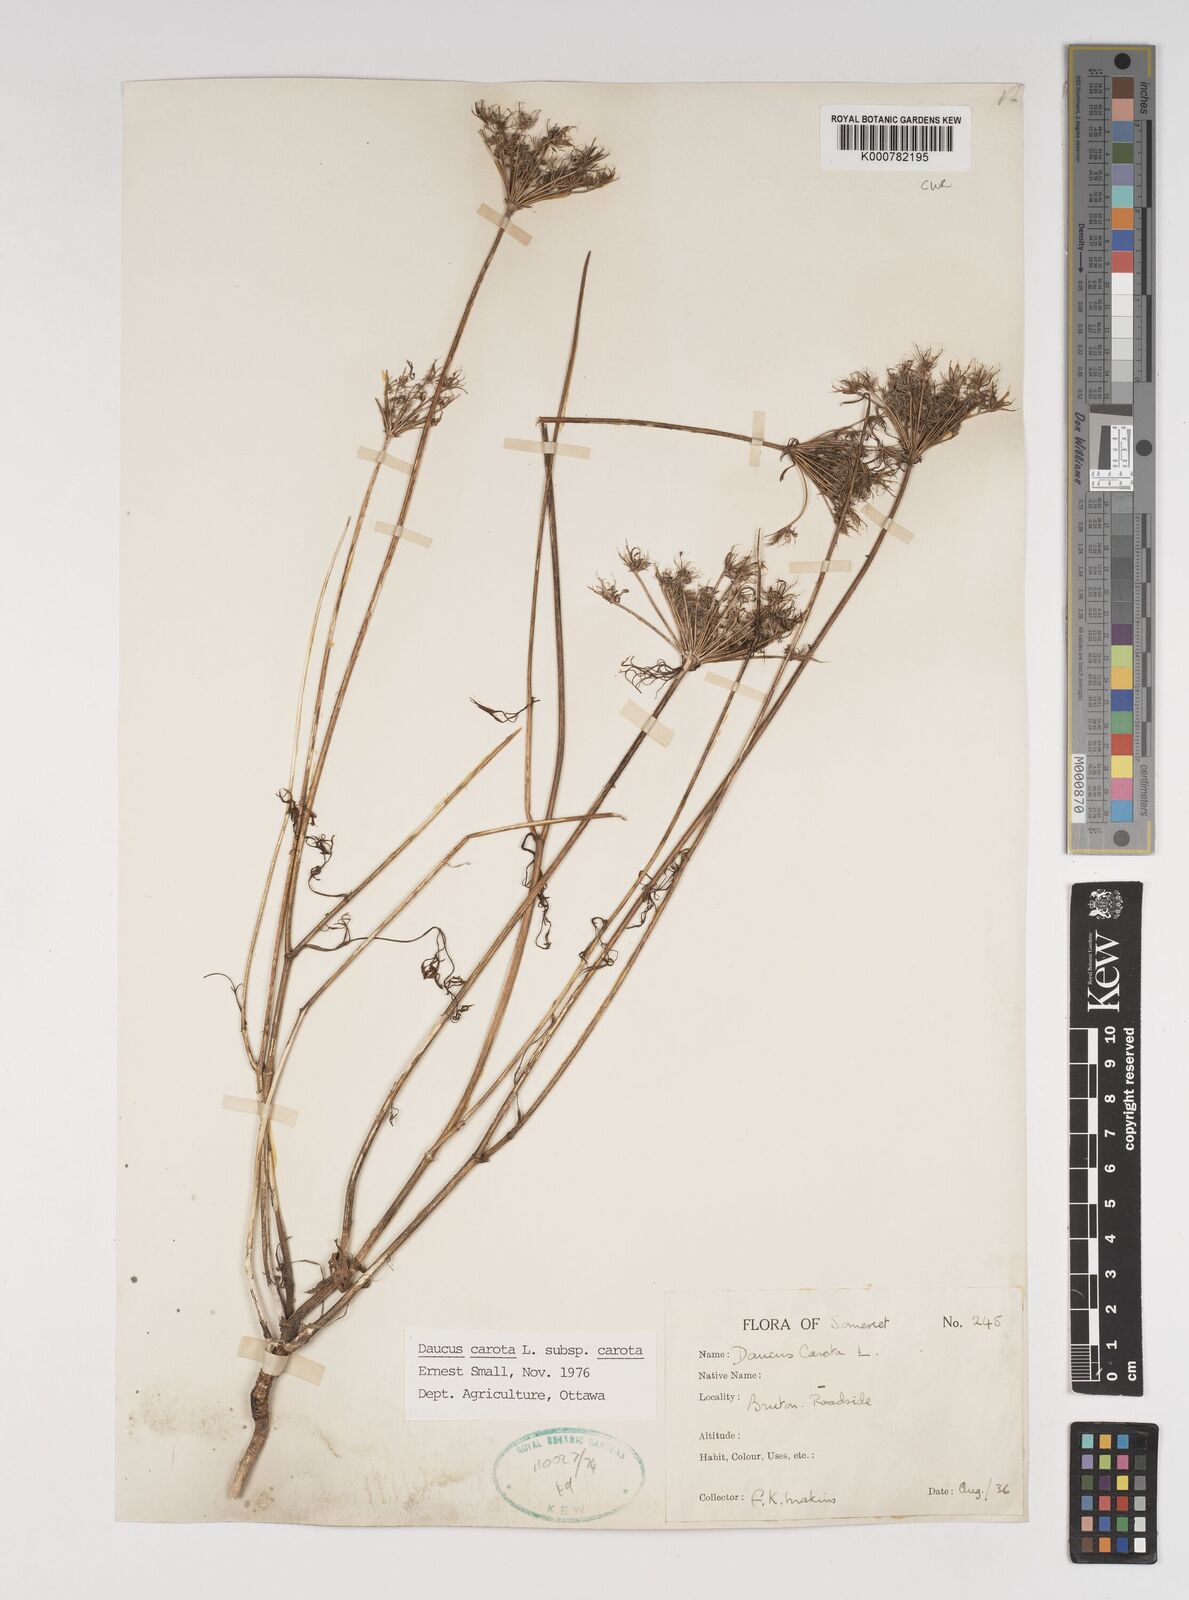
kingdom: Plantae
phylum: Tracheophyta
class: Magnoliopsida
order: Apiales
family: Apiaceae
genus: Daucus
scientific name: Daucus carota
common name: Wild carrot
